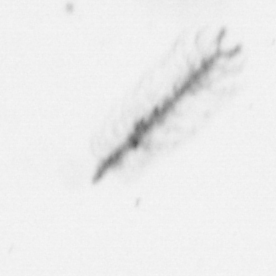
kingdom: Chromista
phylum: Ochrophyta
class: Bacillariophyceae
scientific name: Bacillariophyceae
